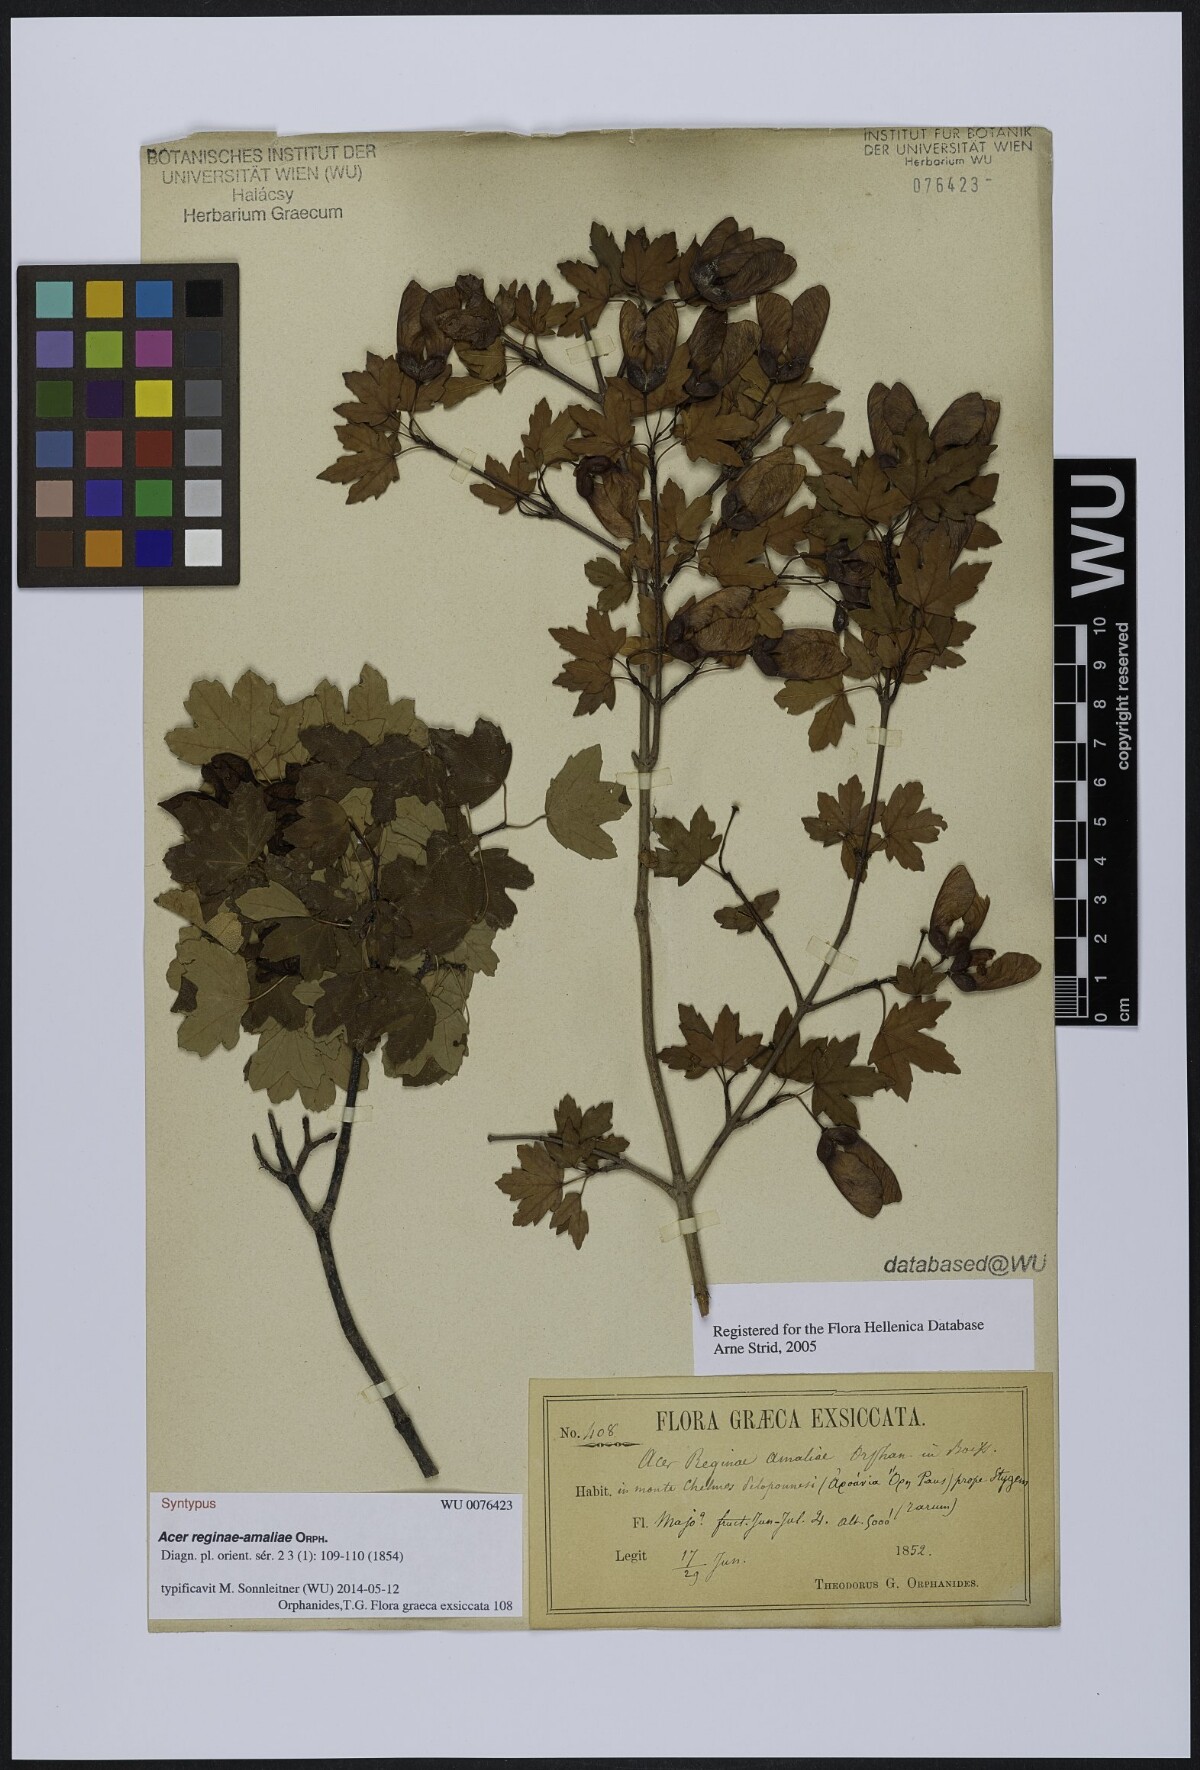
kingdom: Plantae
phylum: Tracheophyta
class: Magnoliopsida
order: Sapindales
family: Sapindaceae
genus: Acer
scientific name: Acer opalus
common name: Italian maple
